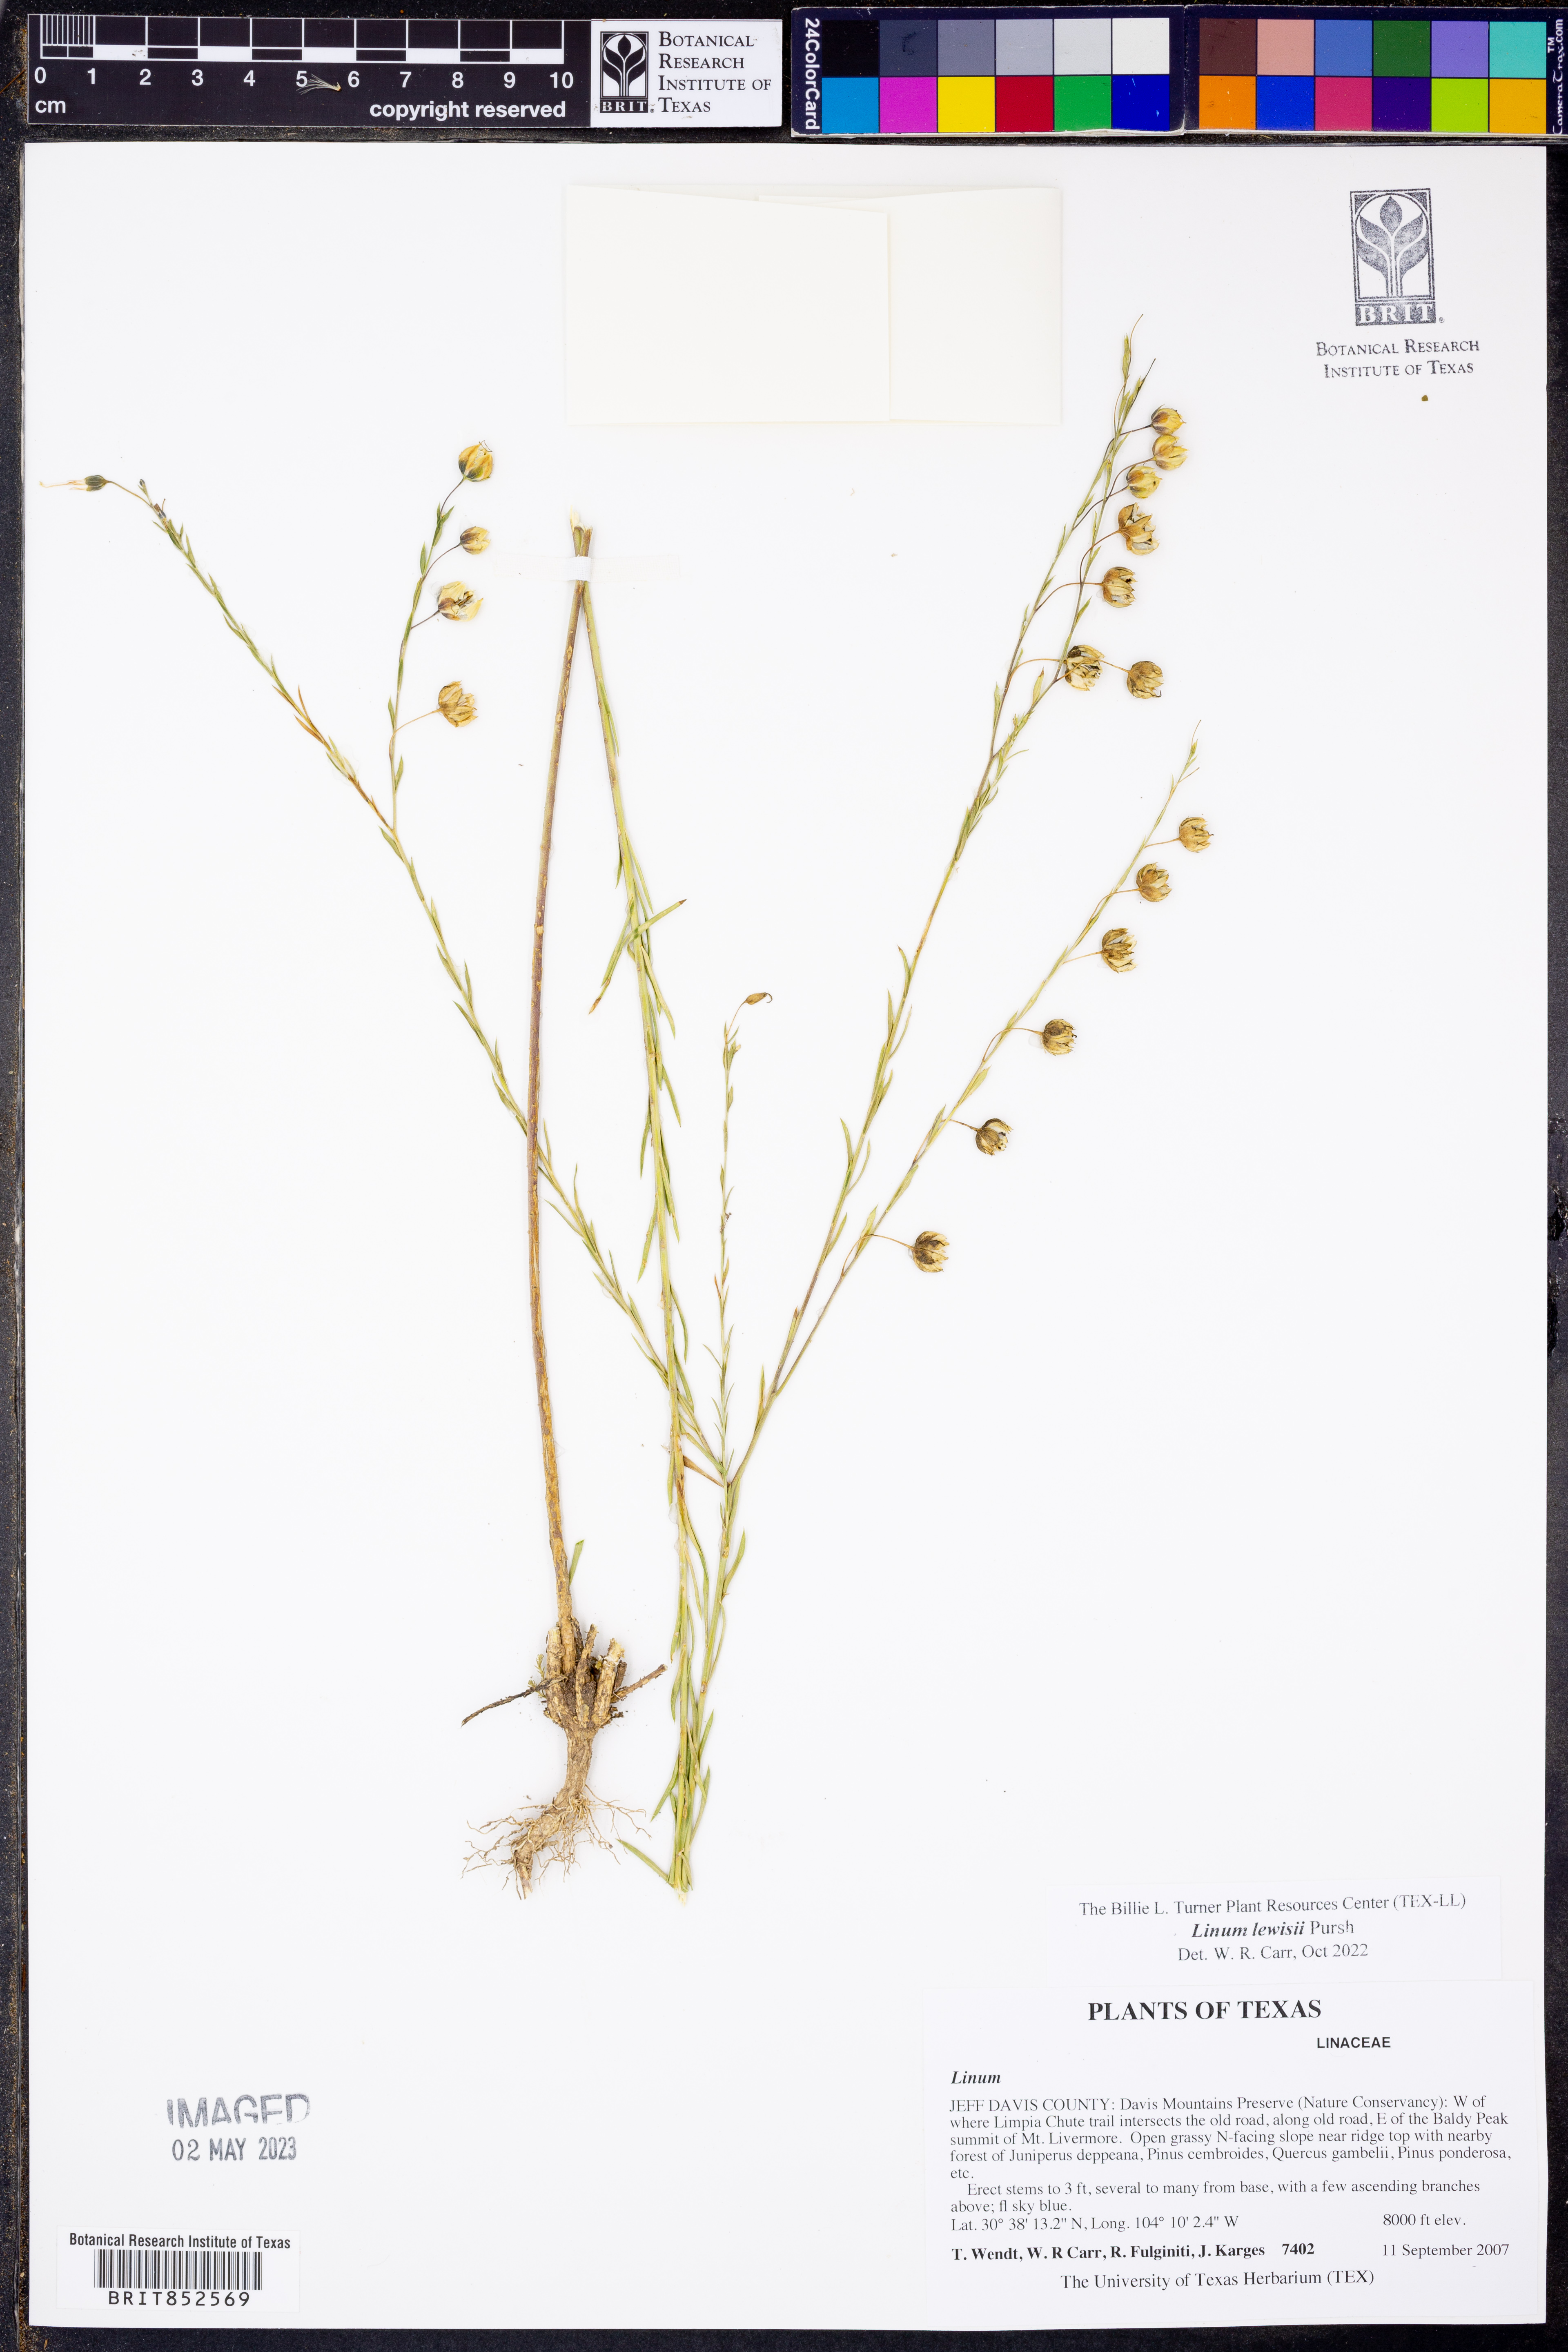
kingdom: Plantae
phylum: Tracheophyta
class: Magnoliopsida
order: Malpighiales
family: Linaceae
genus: Linum
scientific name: Linum lewisii
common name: Prairie flax
